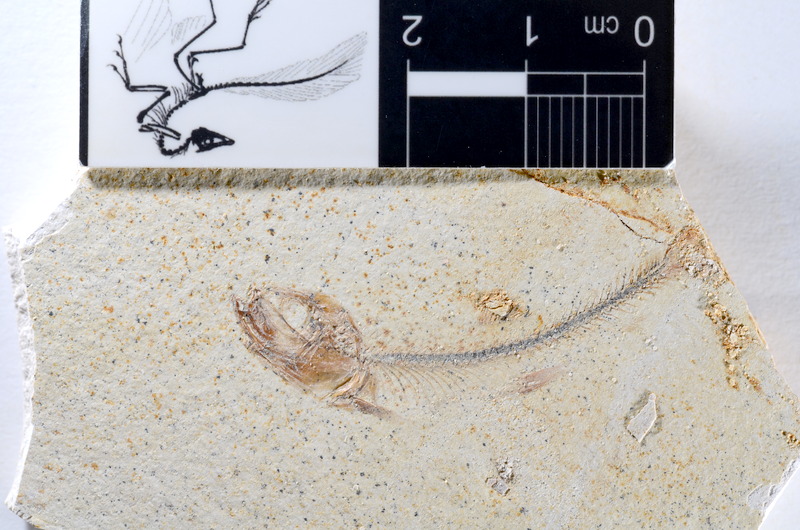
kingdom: Animalia
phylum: Chordata
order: Salmoniformes
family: Orthogonikleithridae
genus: Orthogonikleithrus
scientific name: Orthogonikleithrus hoelli
